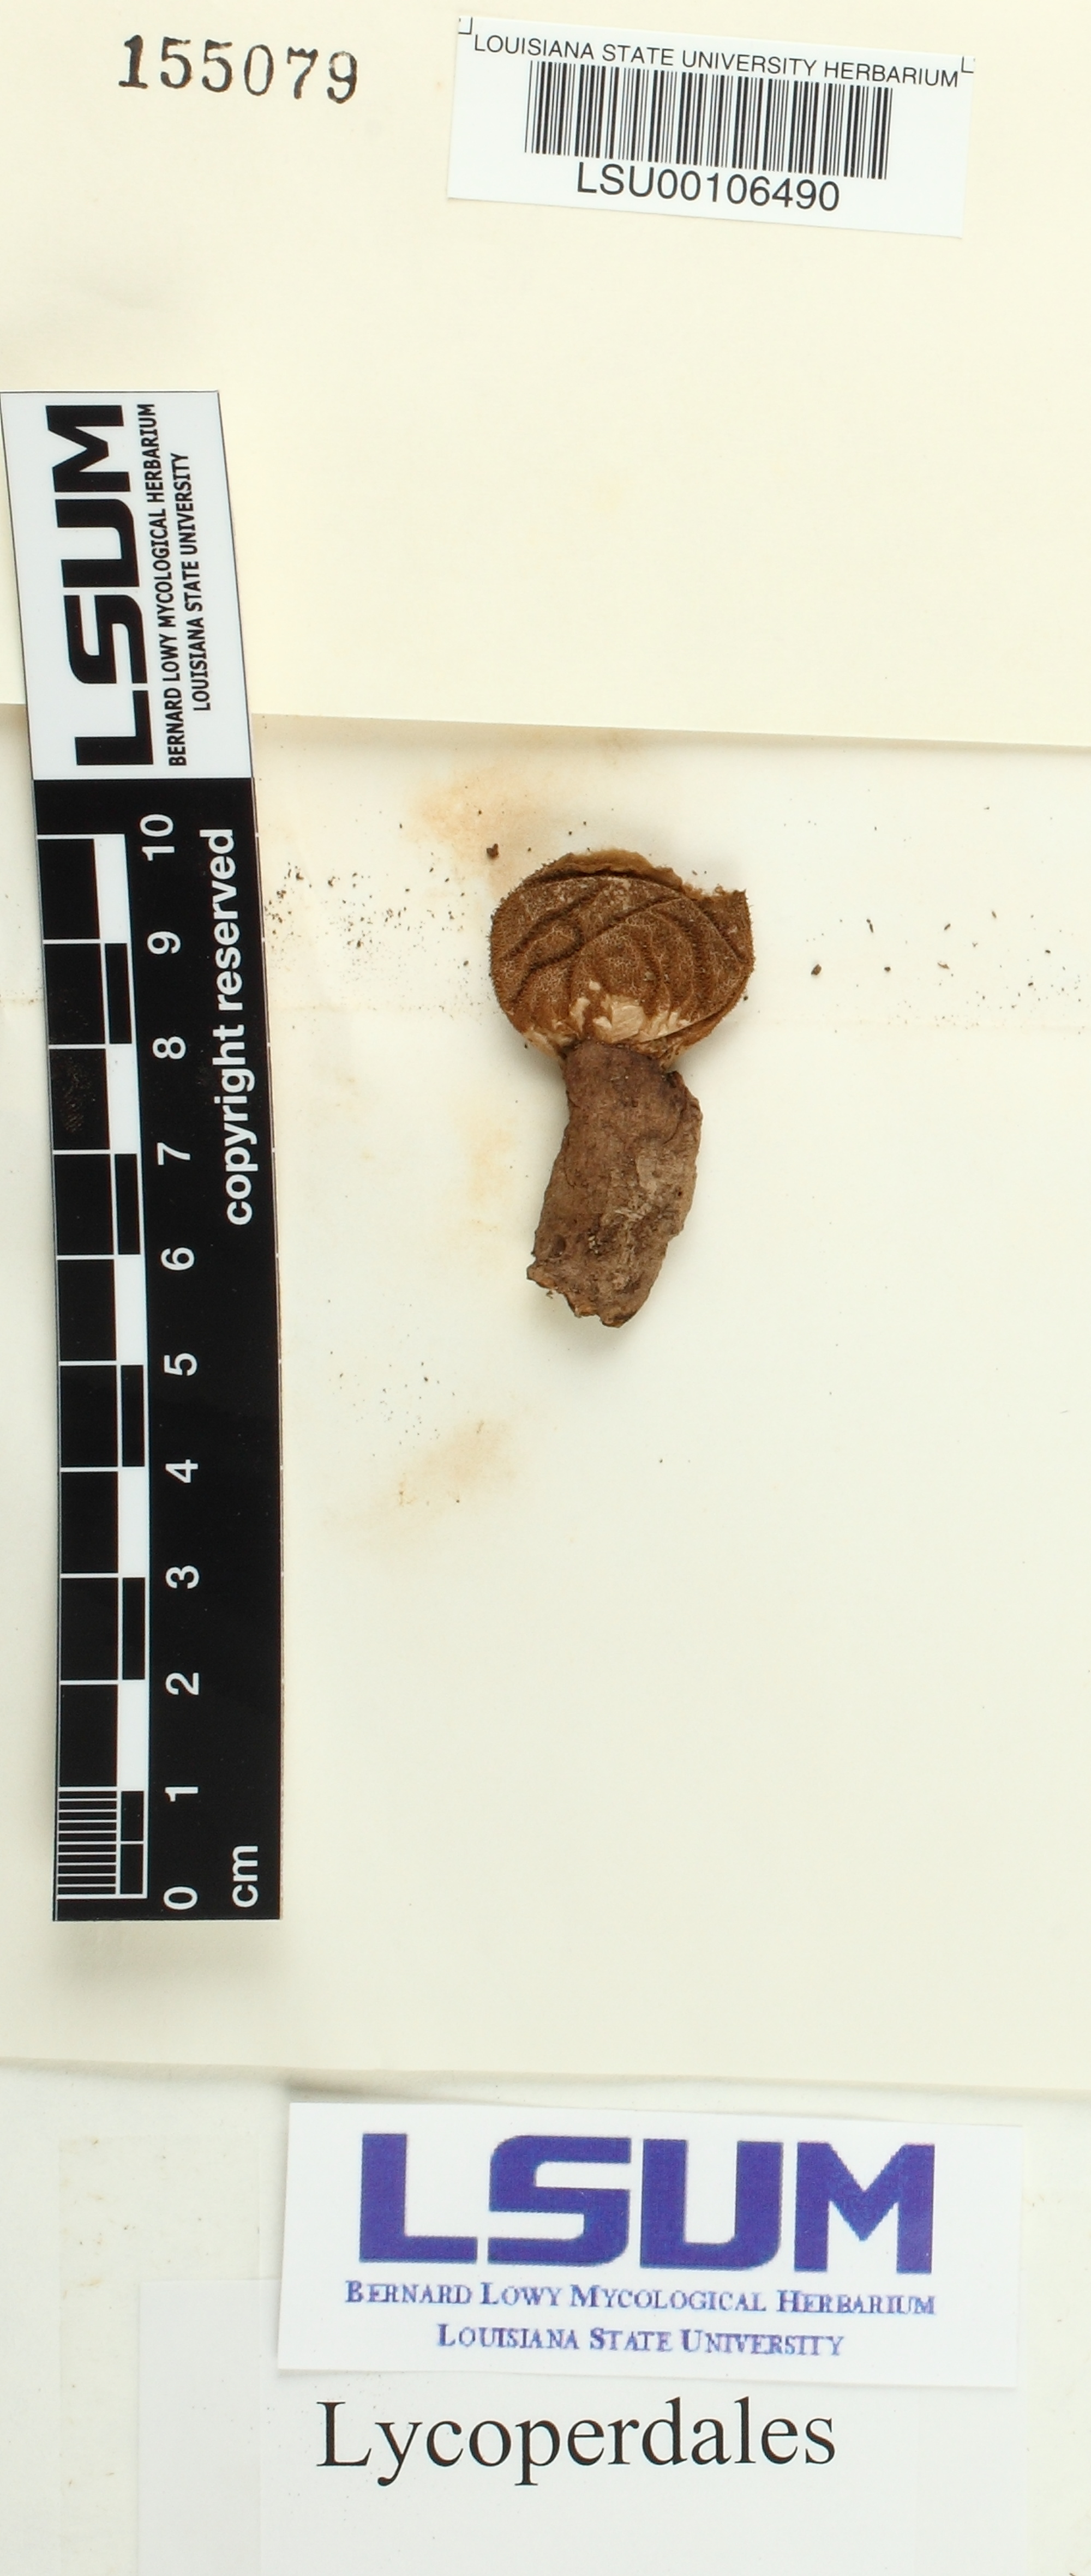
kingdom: Fungi
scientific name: Fungi
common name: Fungi
